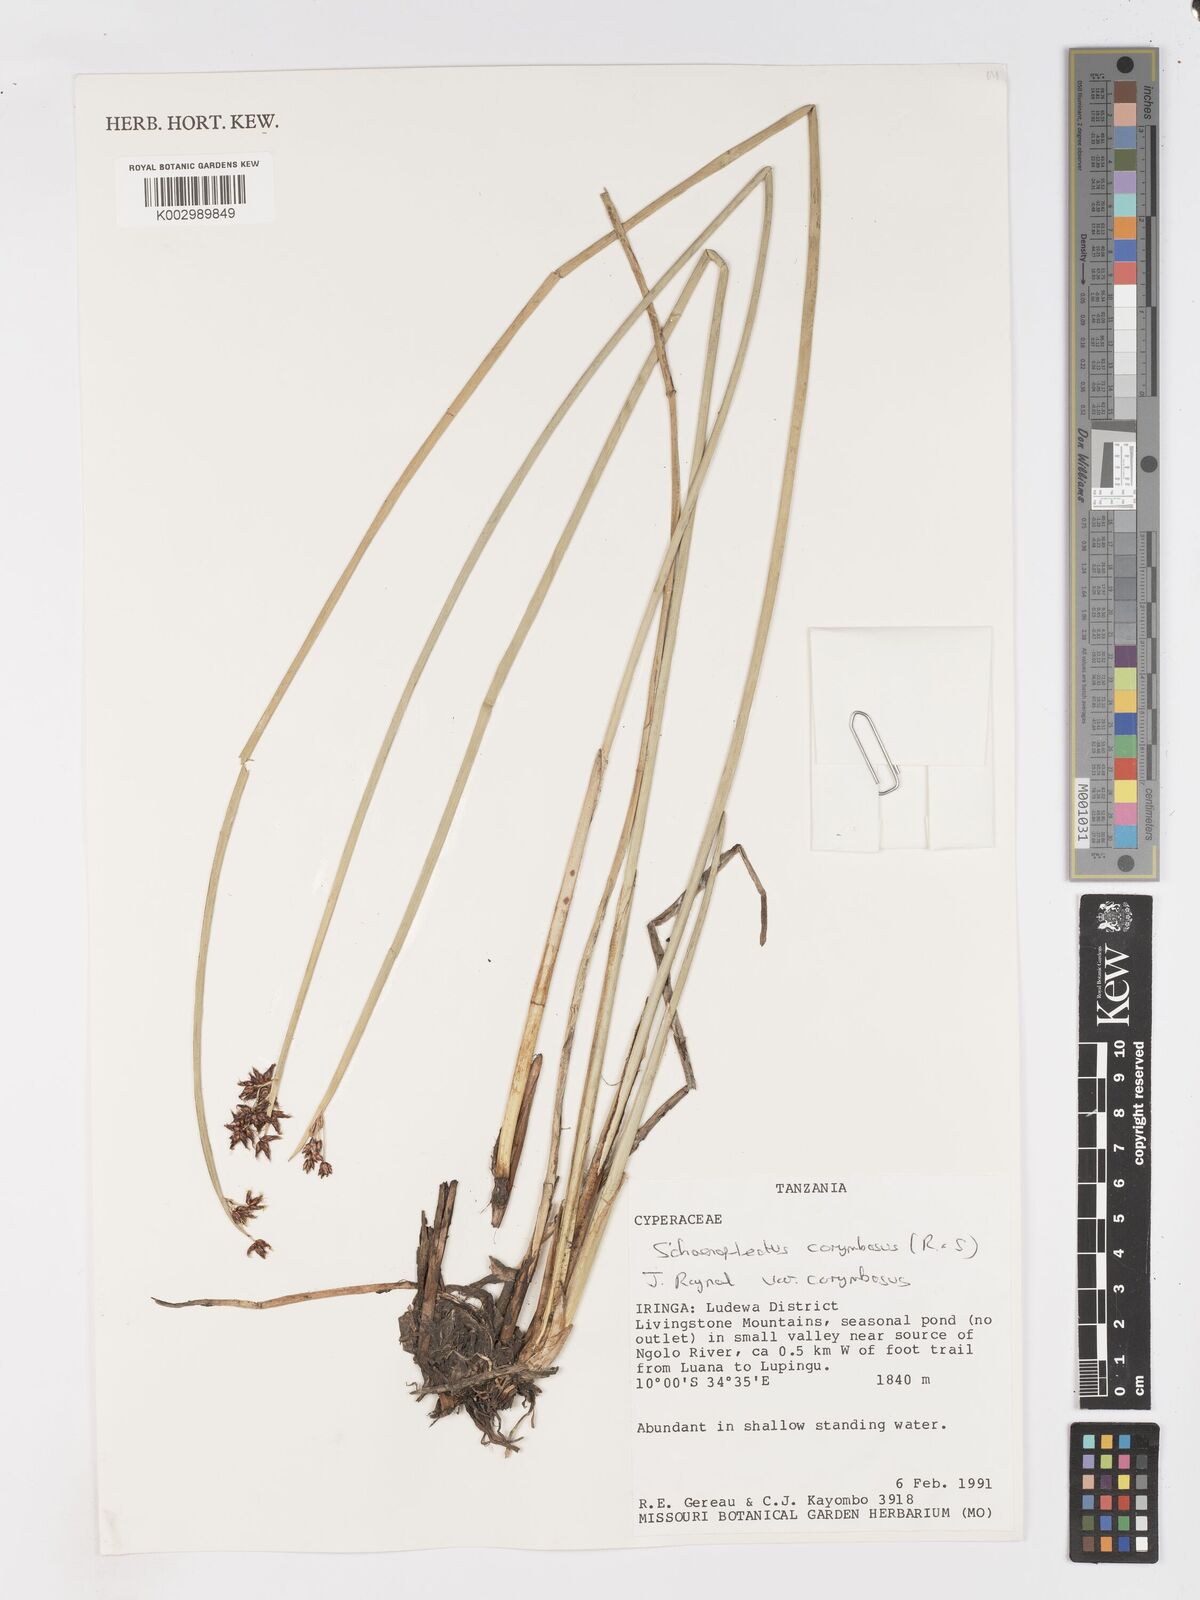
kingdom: Plantae
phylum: Tracheophyta
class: Liliopsida
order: Poales
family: Cyperaceae
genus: Schoenoplectiella
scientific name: Schoenoplectiella corymbosa
